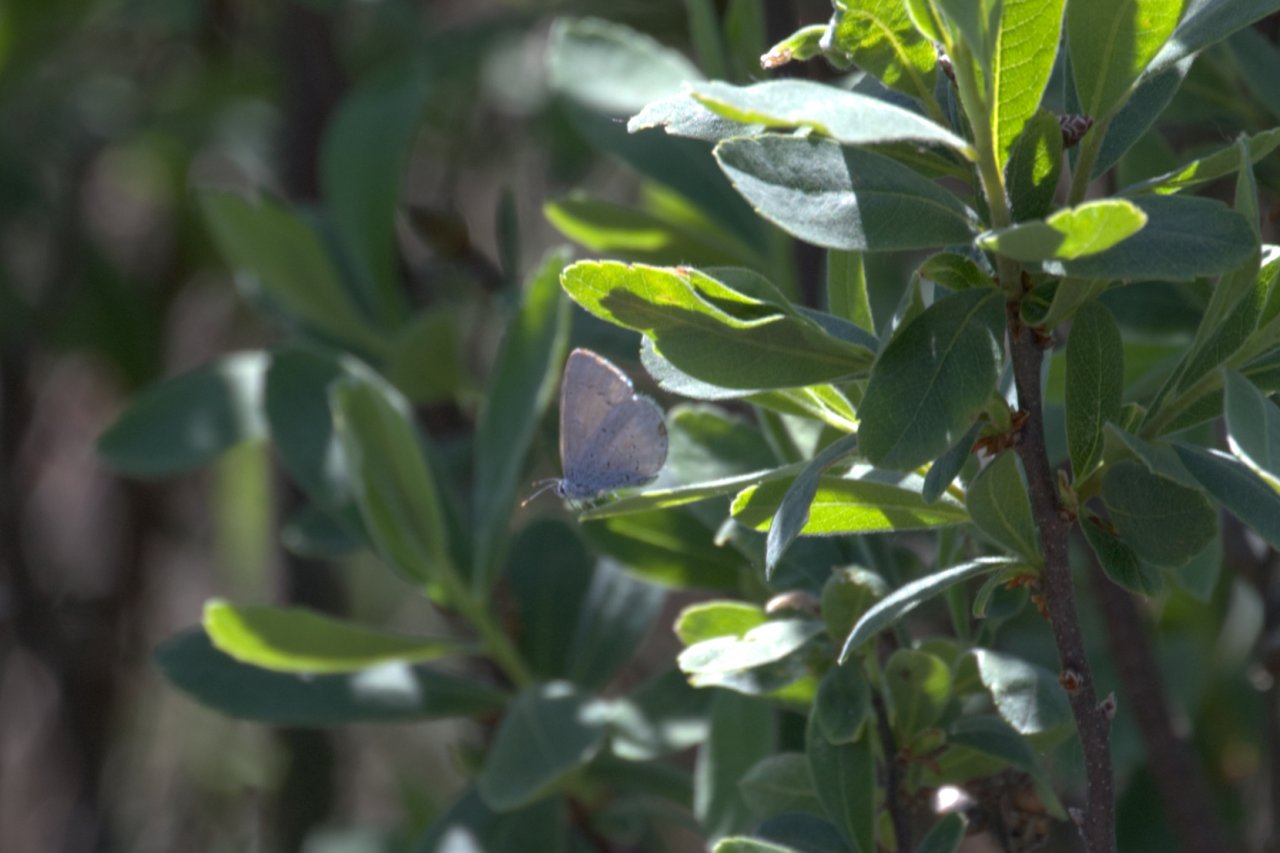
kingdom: Animalia
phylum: Arthropoda
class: Insecta
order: Lepidoptera
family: Lycaenidae
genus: Celastrina
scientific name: Celastrina ladon
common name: Echo Azure
